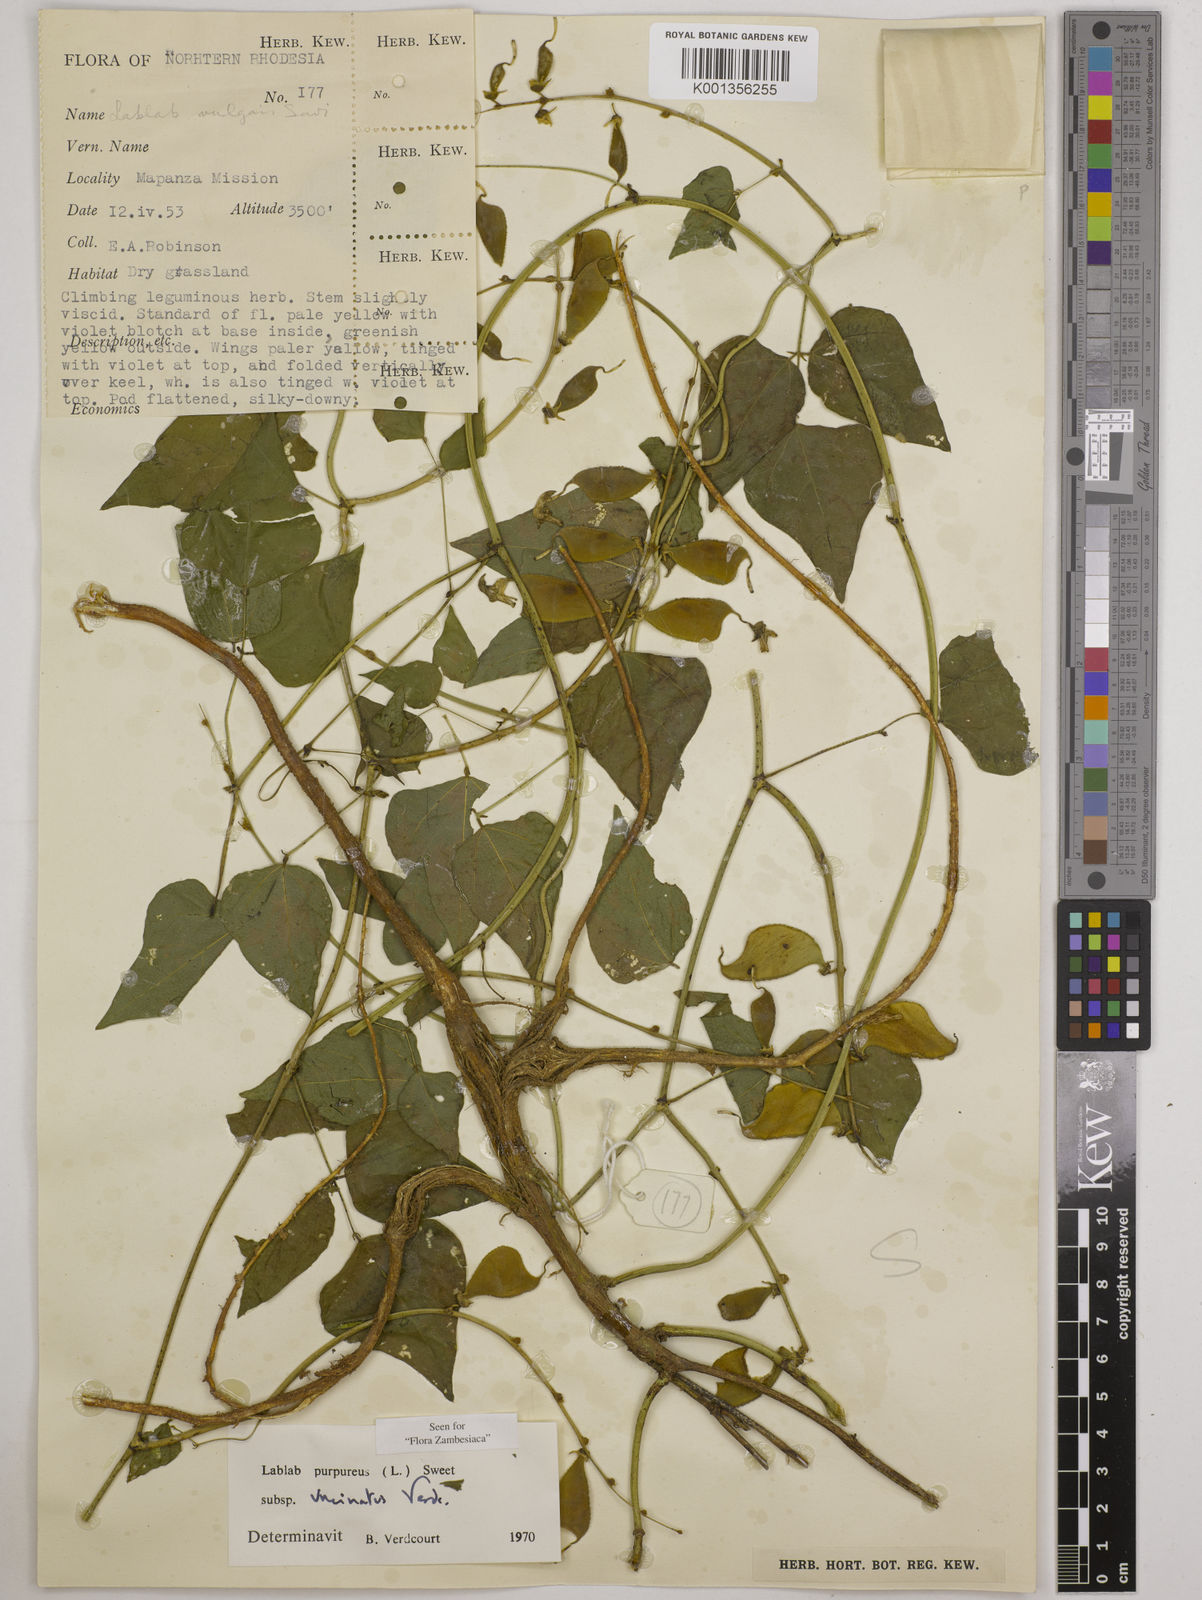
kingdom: Plantae
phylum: Tracheophyta
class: Magnoliopsida
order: Fabales
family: Fabaceae
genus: Lablab
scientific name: Lablab purpureus
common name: Lablab-bean
